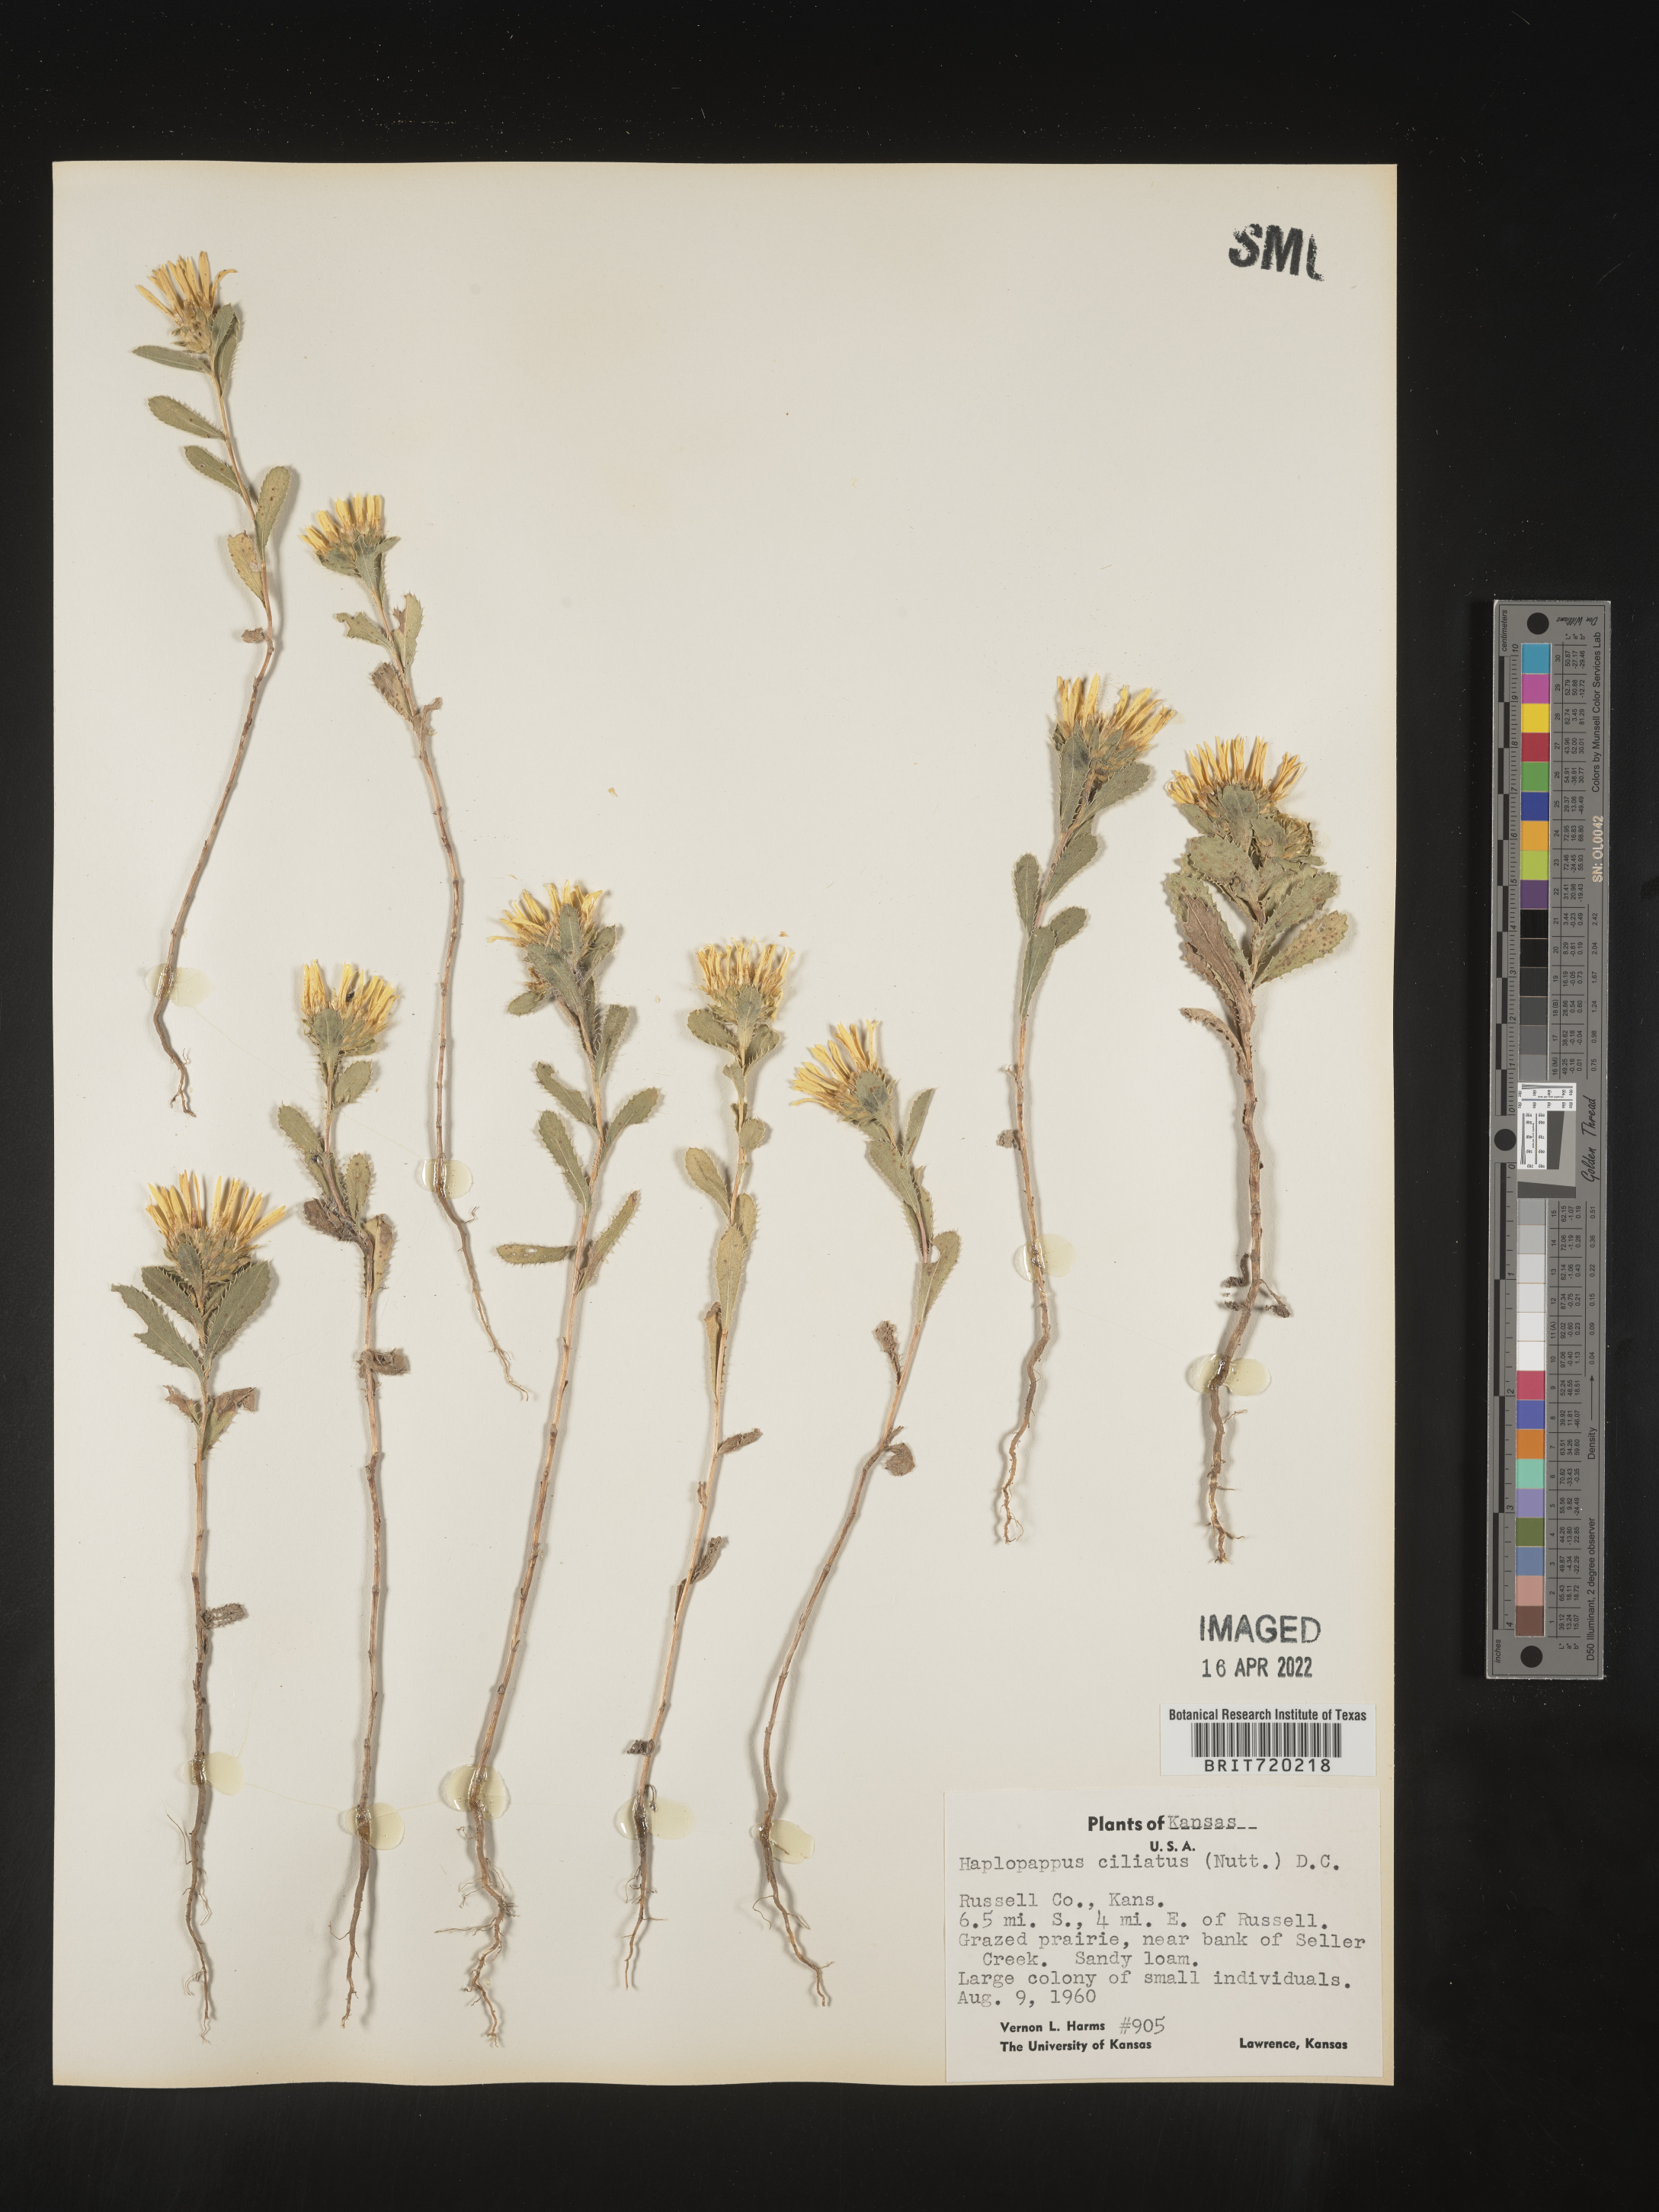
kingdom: Plantae
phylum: Tracheophyta
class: Magnoliopsida
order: Asterales
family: Asteraceae
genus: Grindelia
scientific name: Grindelia ciliata
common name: Goldenweed
